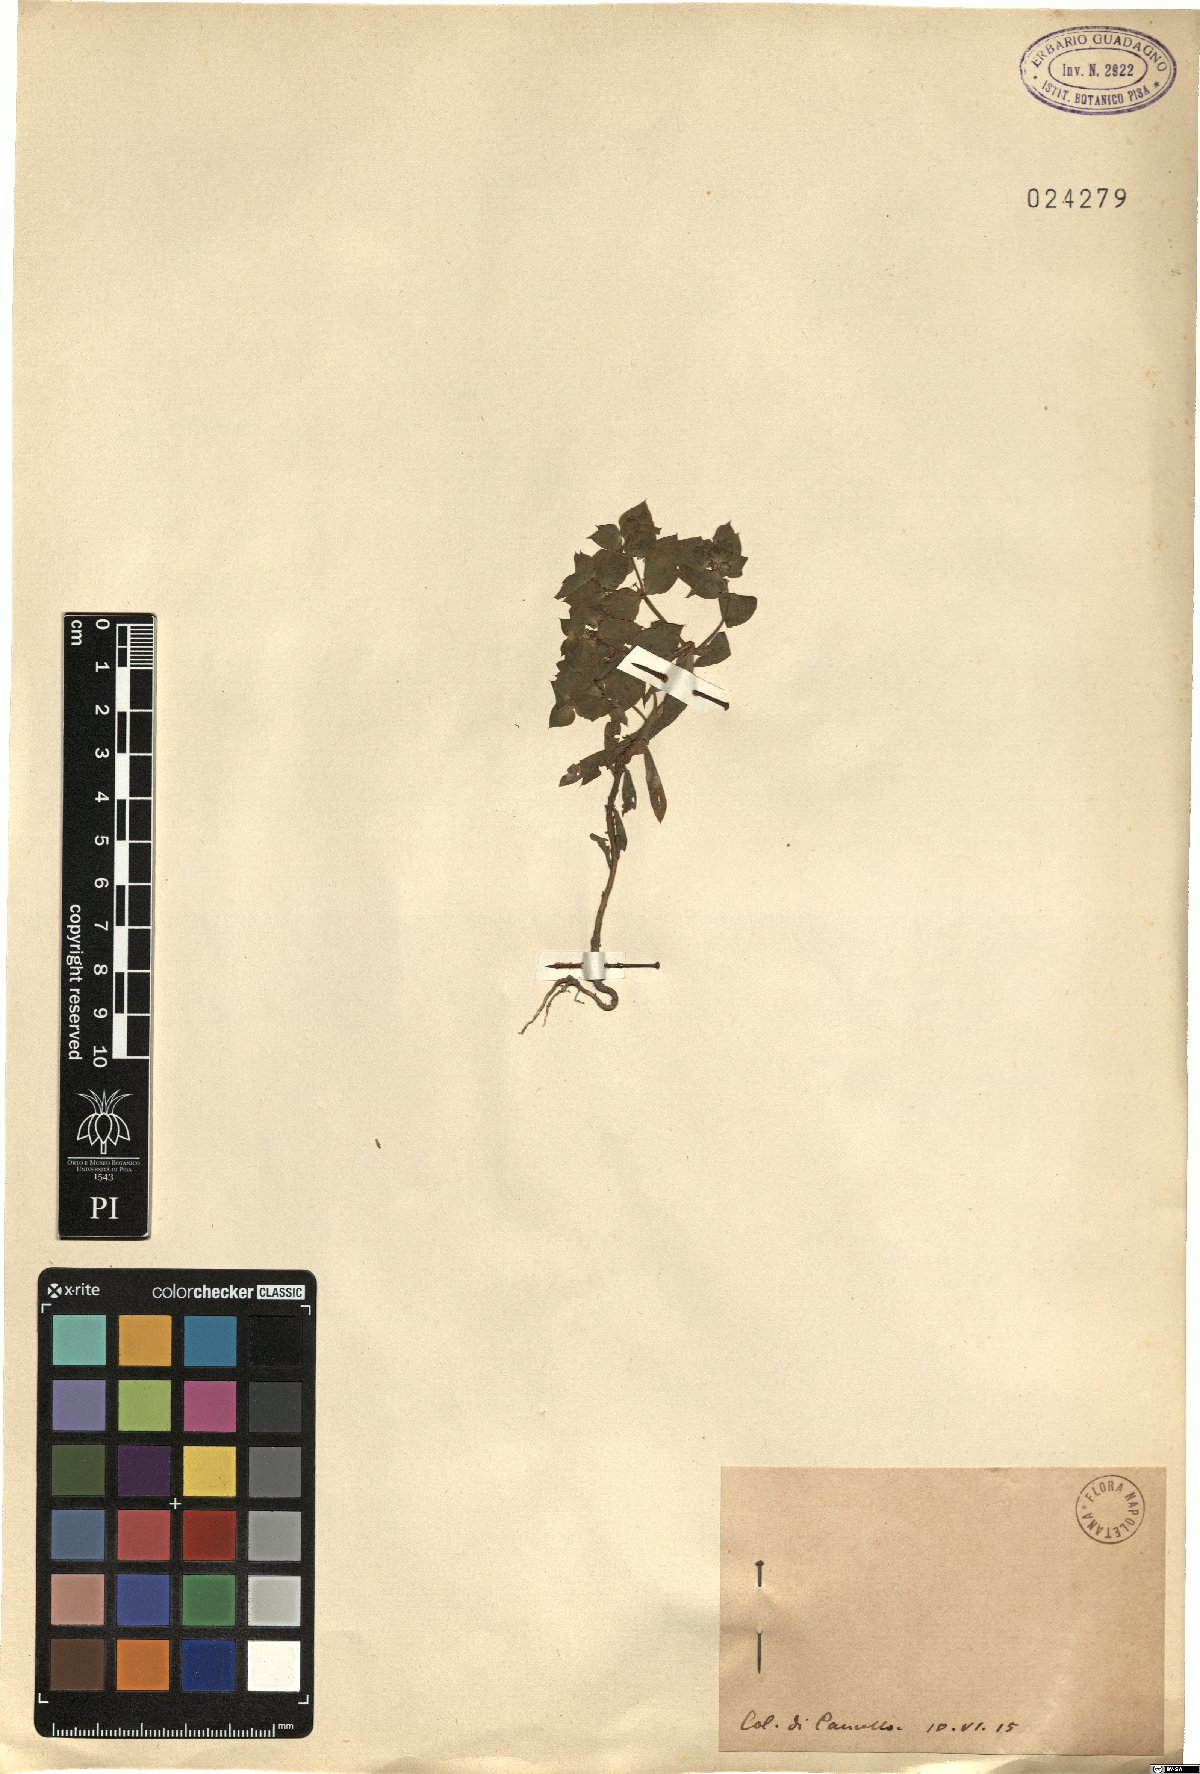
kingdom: Plantae
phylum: Tracheophyta
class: Magnoliopsida
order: Malpighiales
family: Euphorbiaceae
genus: Euphorbia
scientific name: Euphorbia
